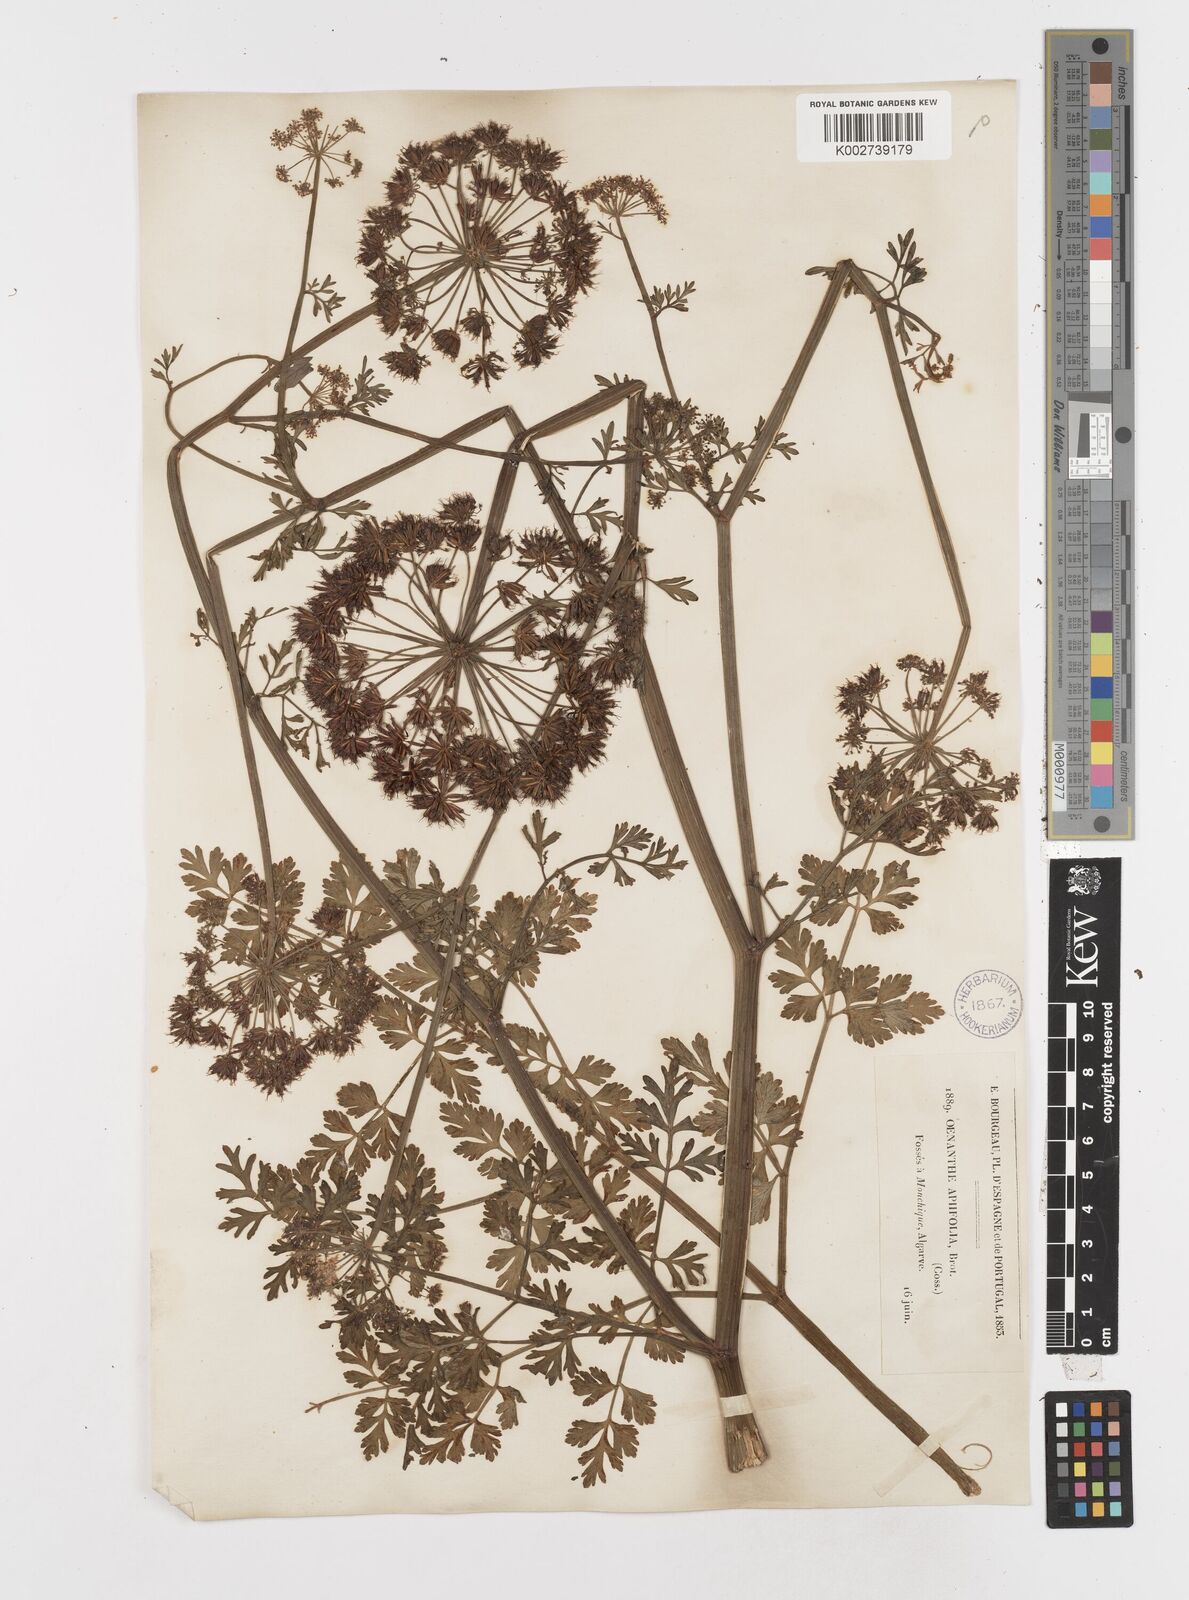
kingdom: Plantae
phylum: Tracheophyta
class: Magnoliopsida
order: Apiales
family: Apiaceae
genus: Oenanthe
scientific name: Oenanthe crocata
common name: Hemlock water-dropwort
